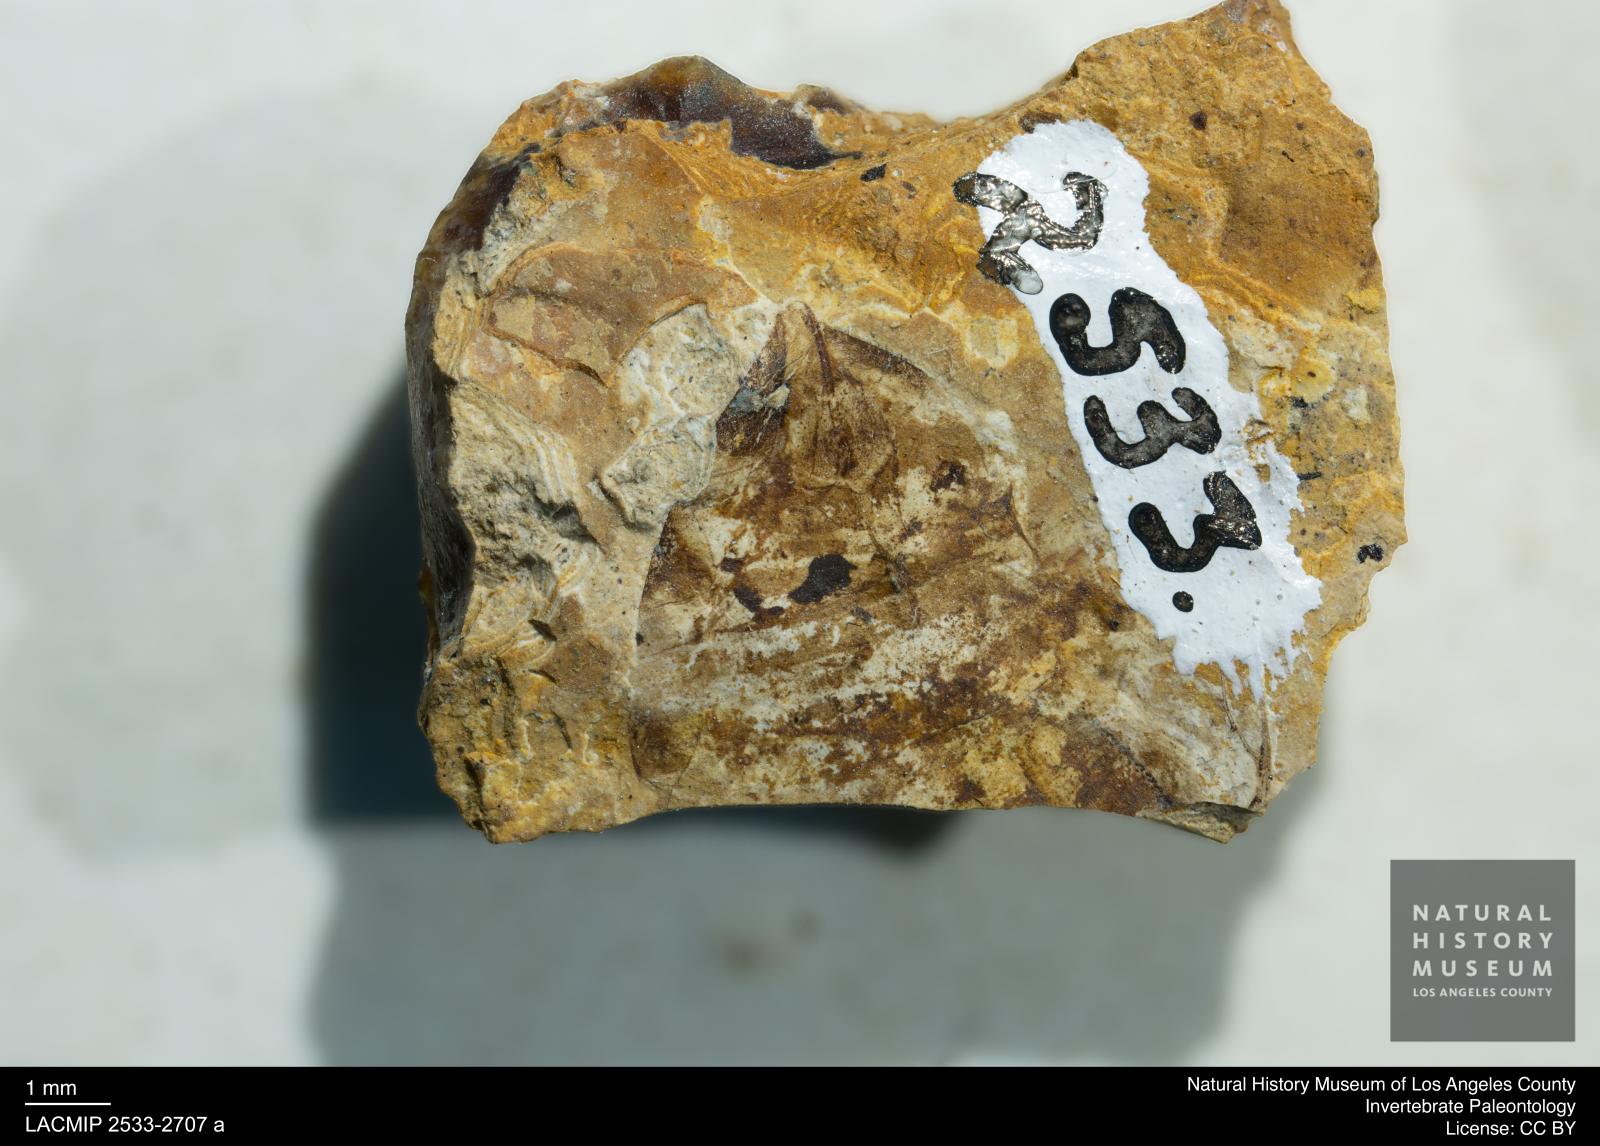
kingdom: Animalia
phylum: Arthropoda
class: Insecta
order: Hymenoptera
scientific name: Hymenoptera
